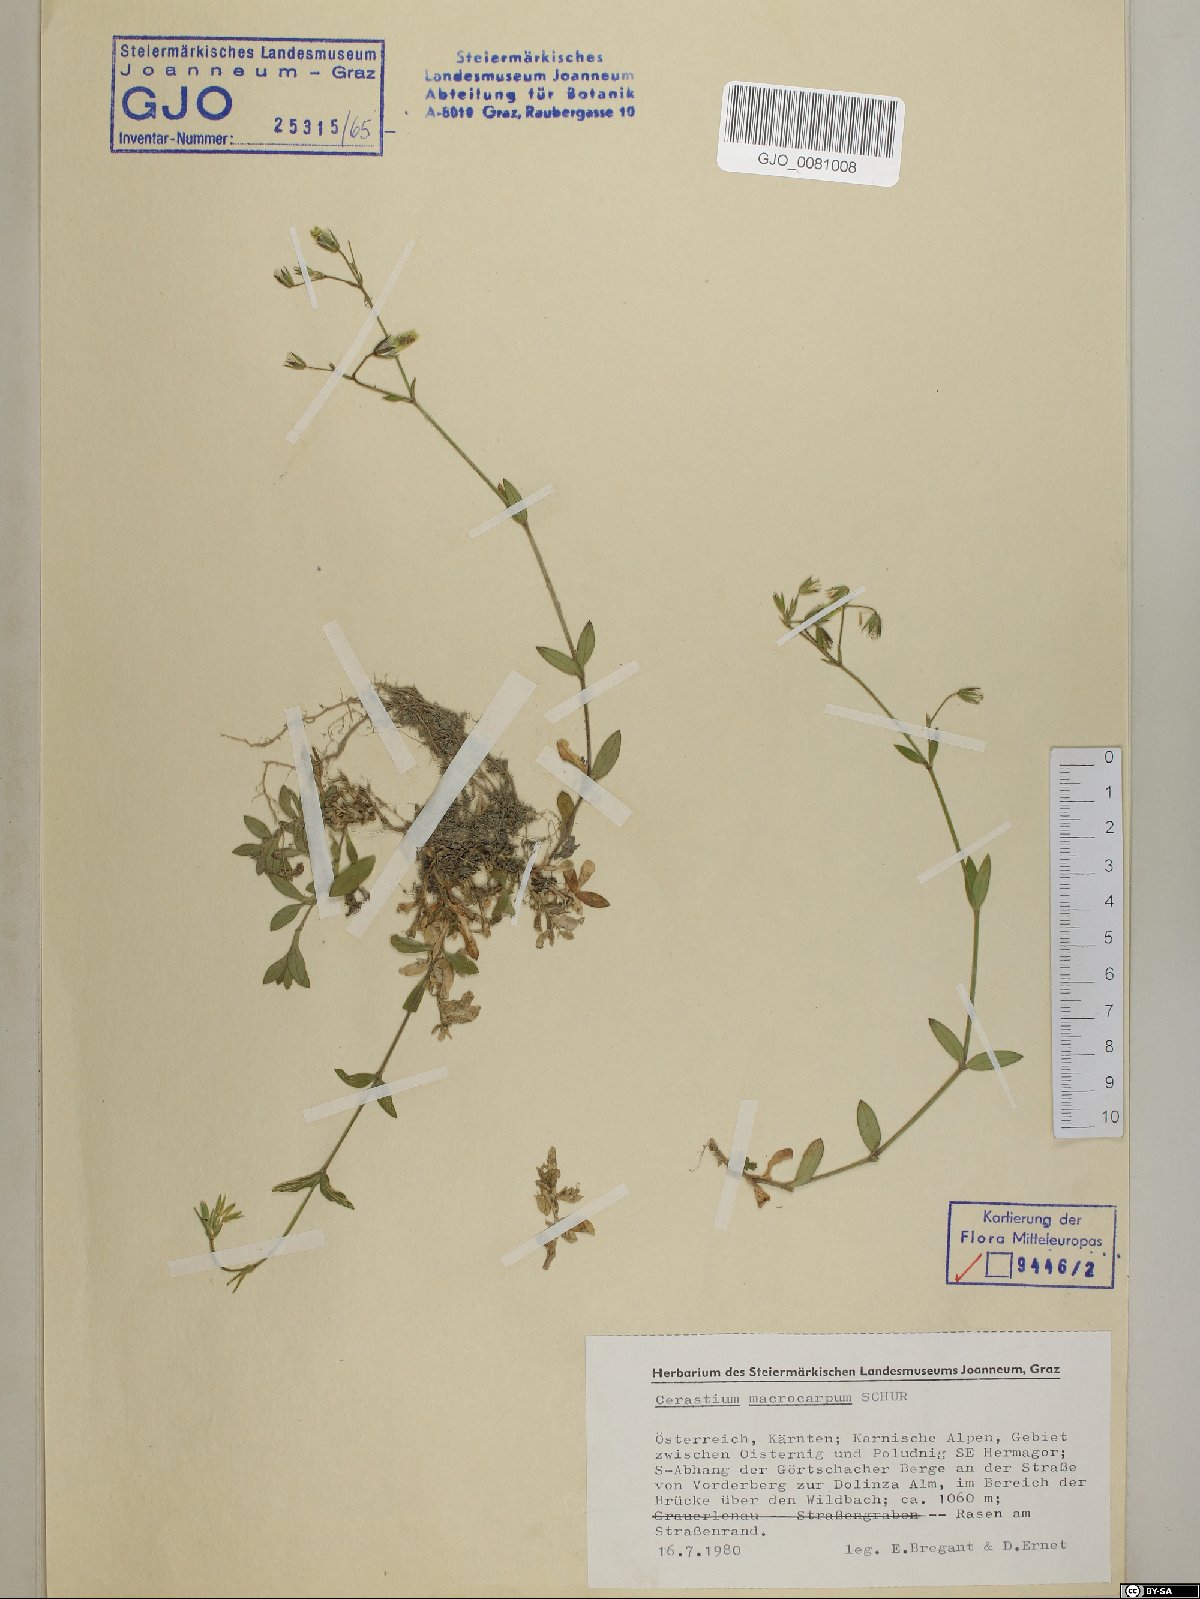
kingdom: Plantae
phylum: Tracheophyta
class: Magnoliopsida
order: Caryophyllales
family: Caryophyllaceae
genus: Cerastium
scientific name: Cerastium lucorum
